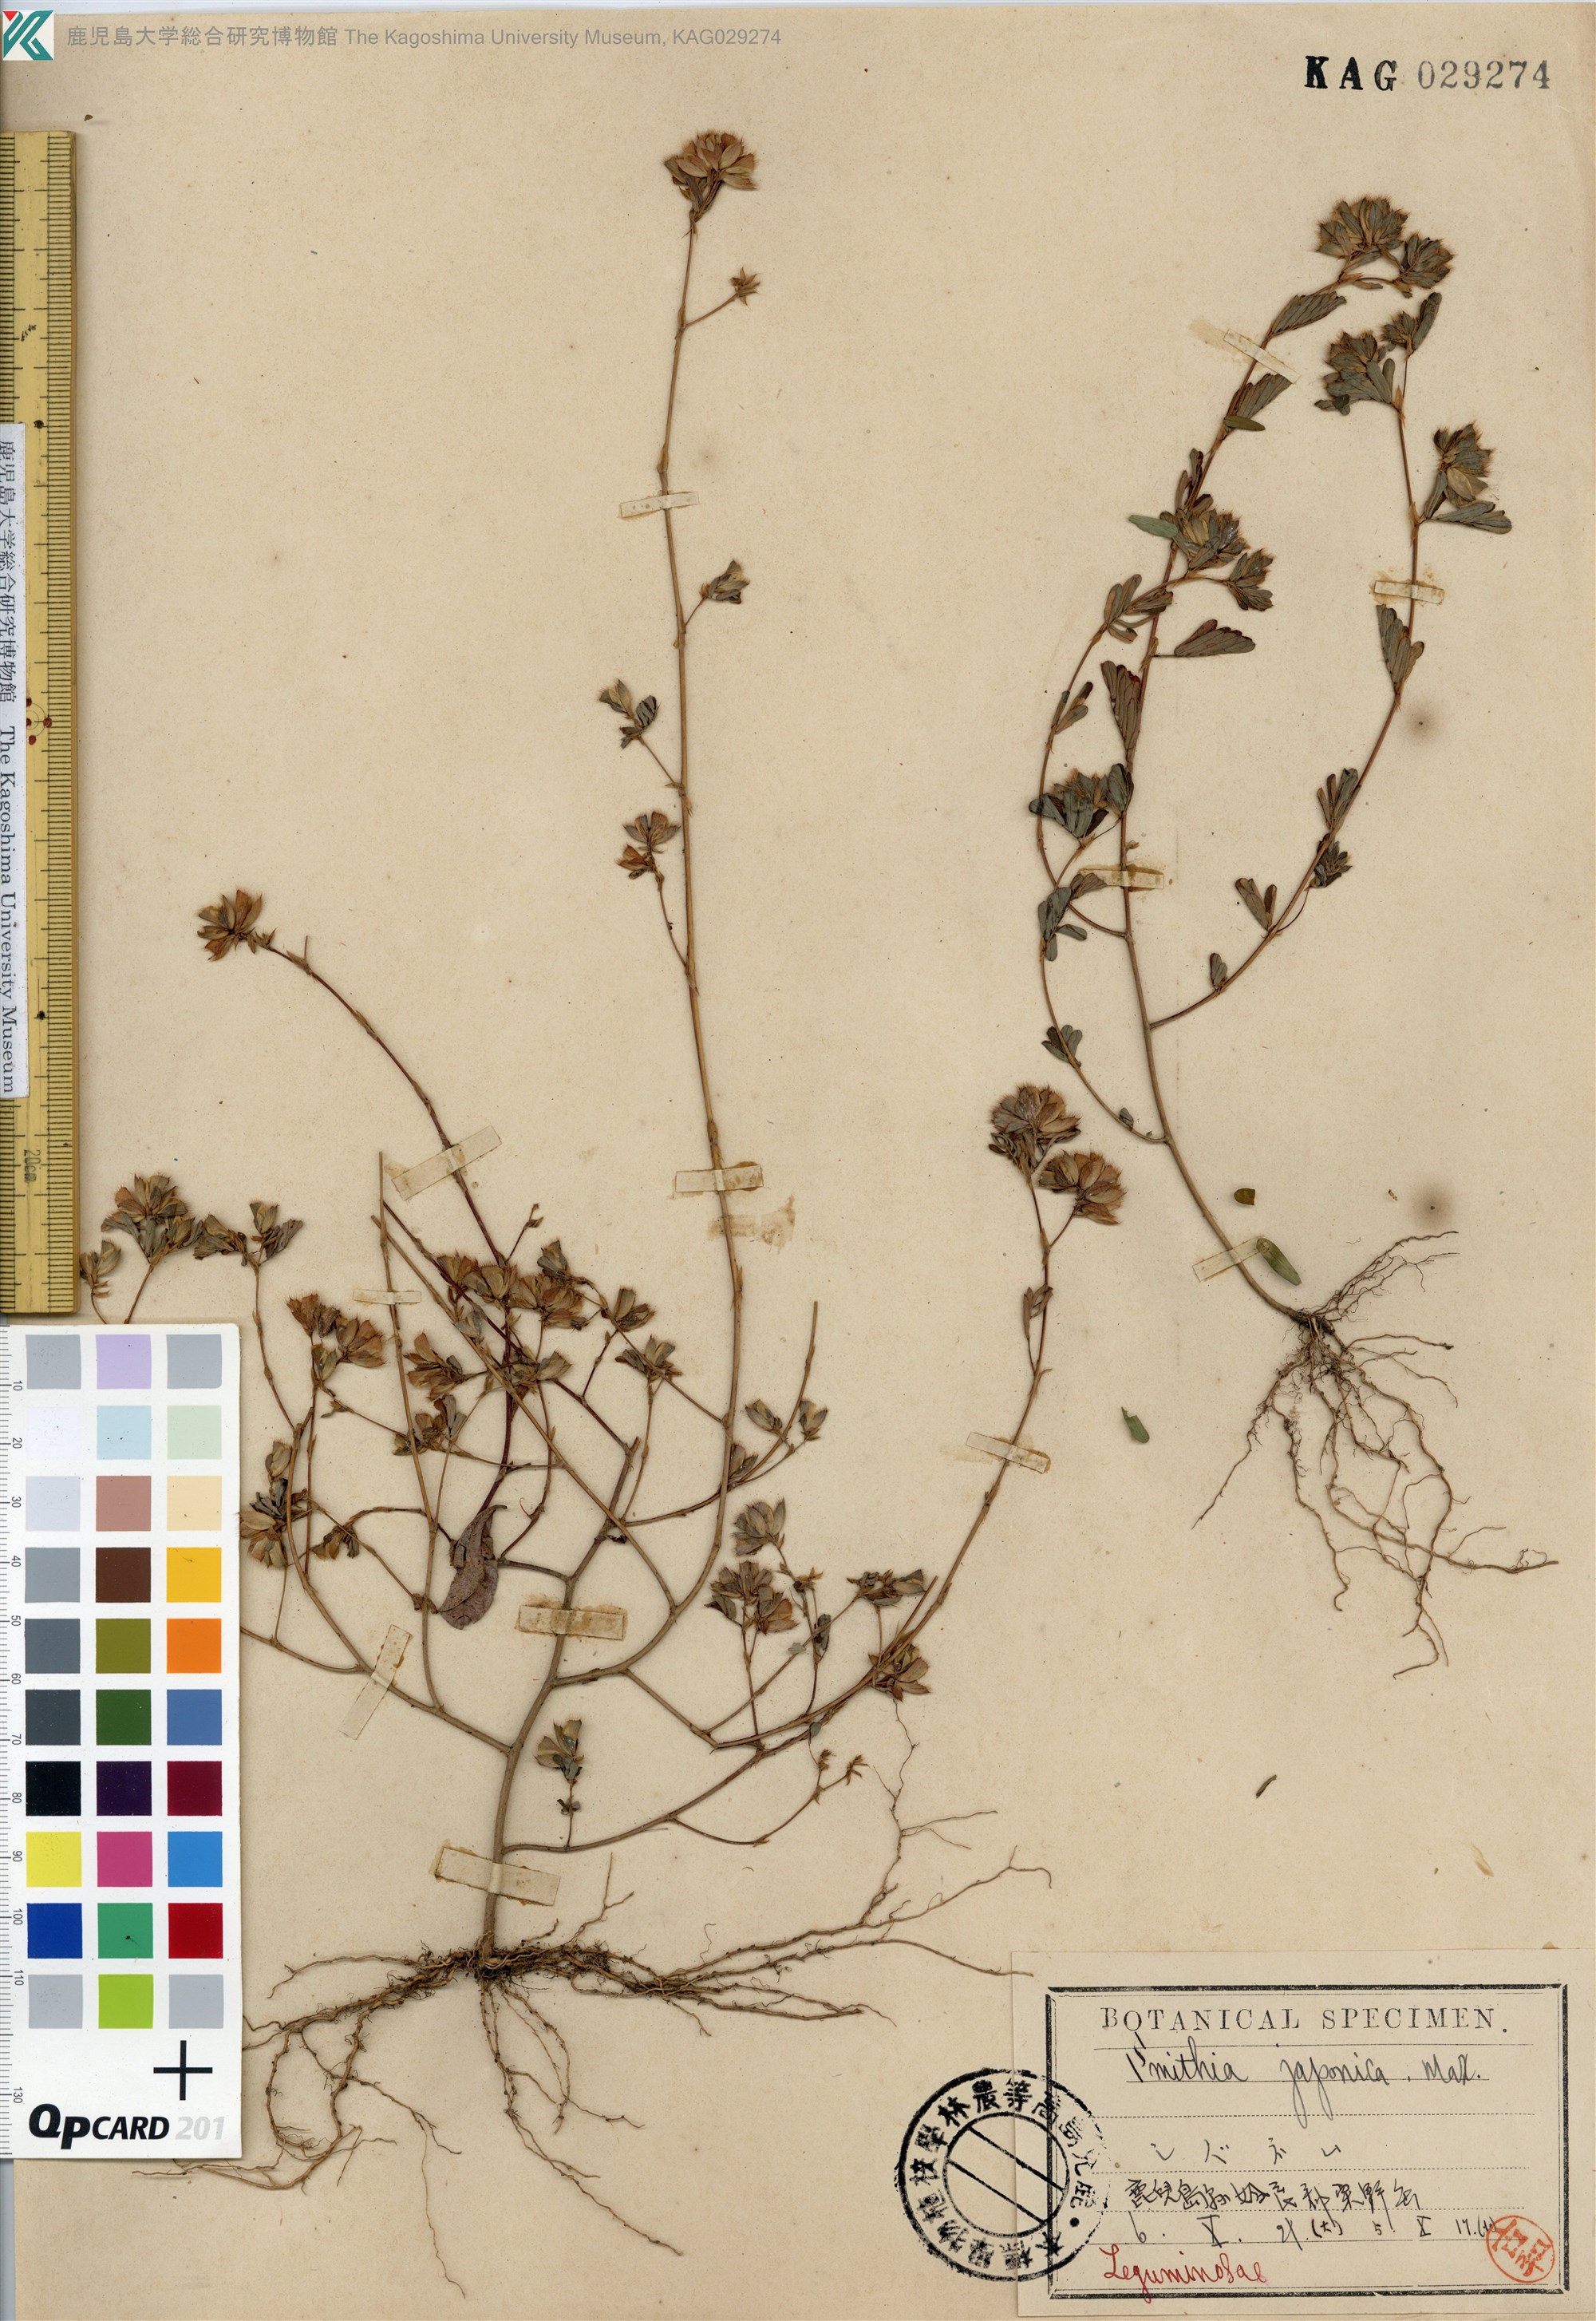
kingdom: Plantae
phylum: Tracheophyta
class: Magnoliopsida
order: Fabales
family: Fabaceae
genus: Smithia
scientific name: Smithia ciliata
